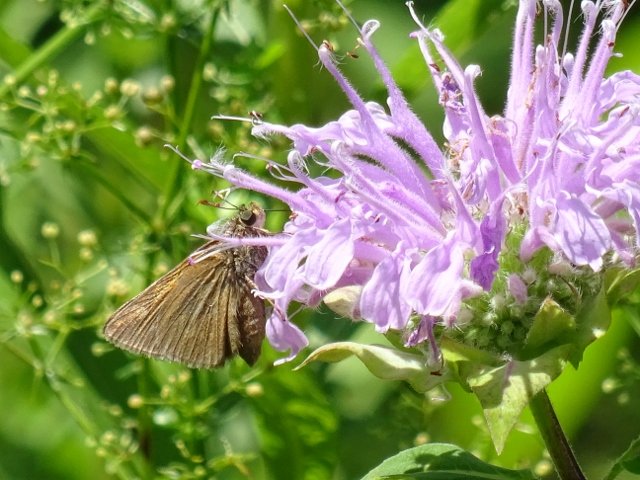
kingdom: Animalia
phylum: Arthropoda
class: Insecta
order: Lepidoptera
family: Hesperiidae
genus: Euphyes
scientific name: Euphyes vestris
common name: Dun Skipper
